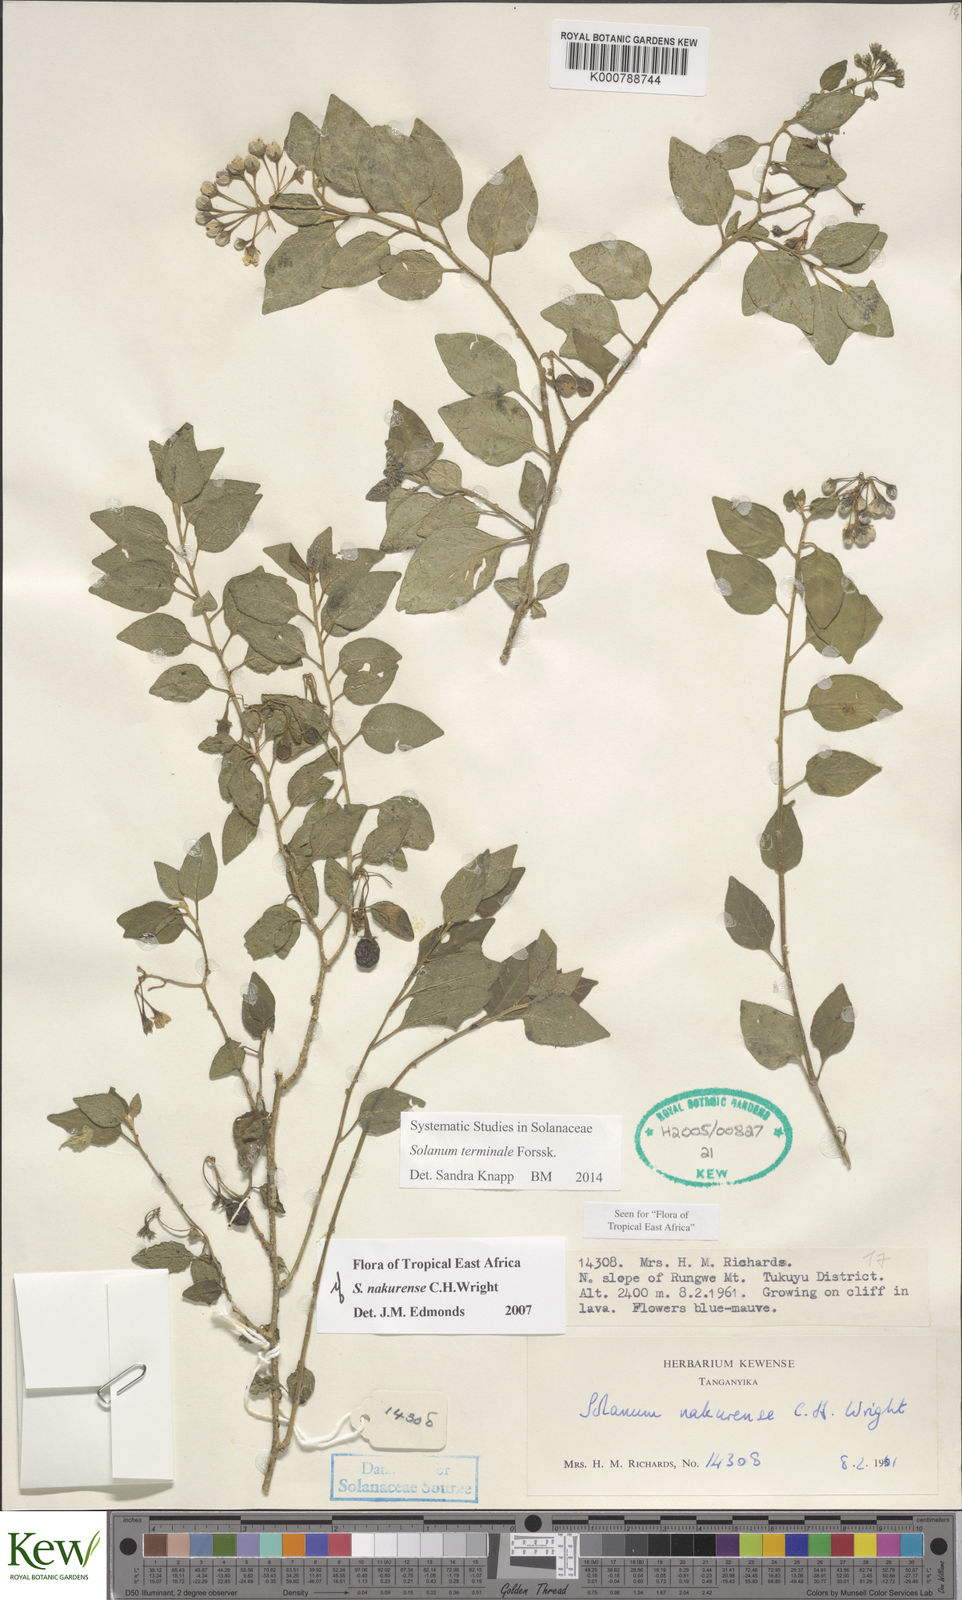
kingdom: Plantae
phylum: Tracheophyta
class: Magnoliopsida
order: Solanales
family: Solanaceae
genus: Solanum
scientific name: Solanum terminale
